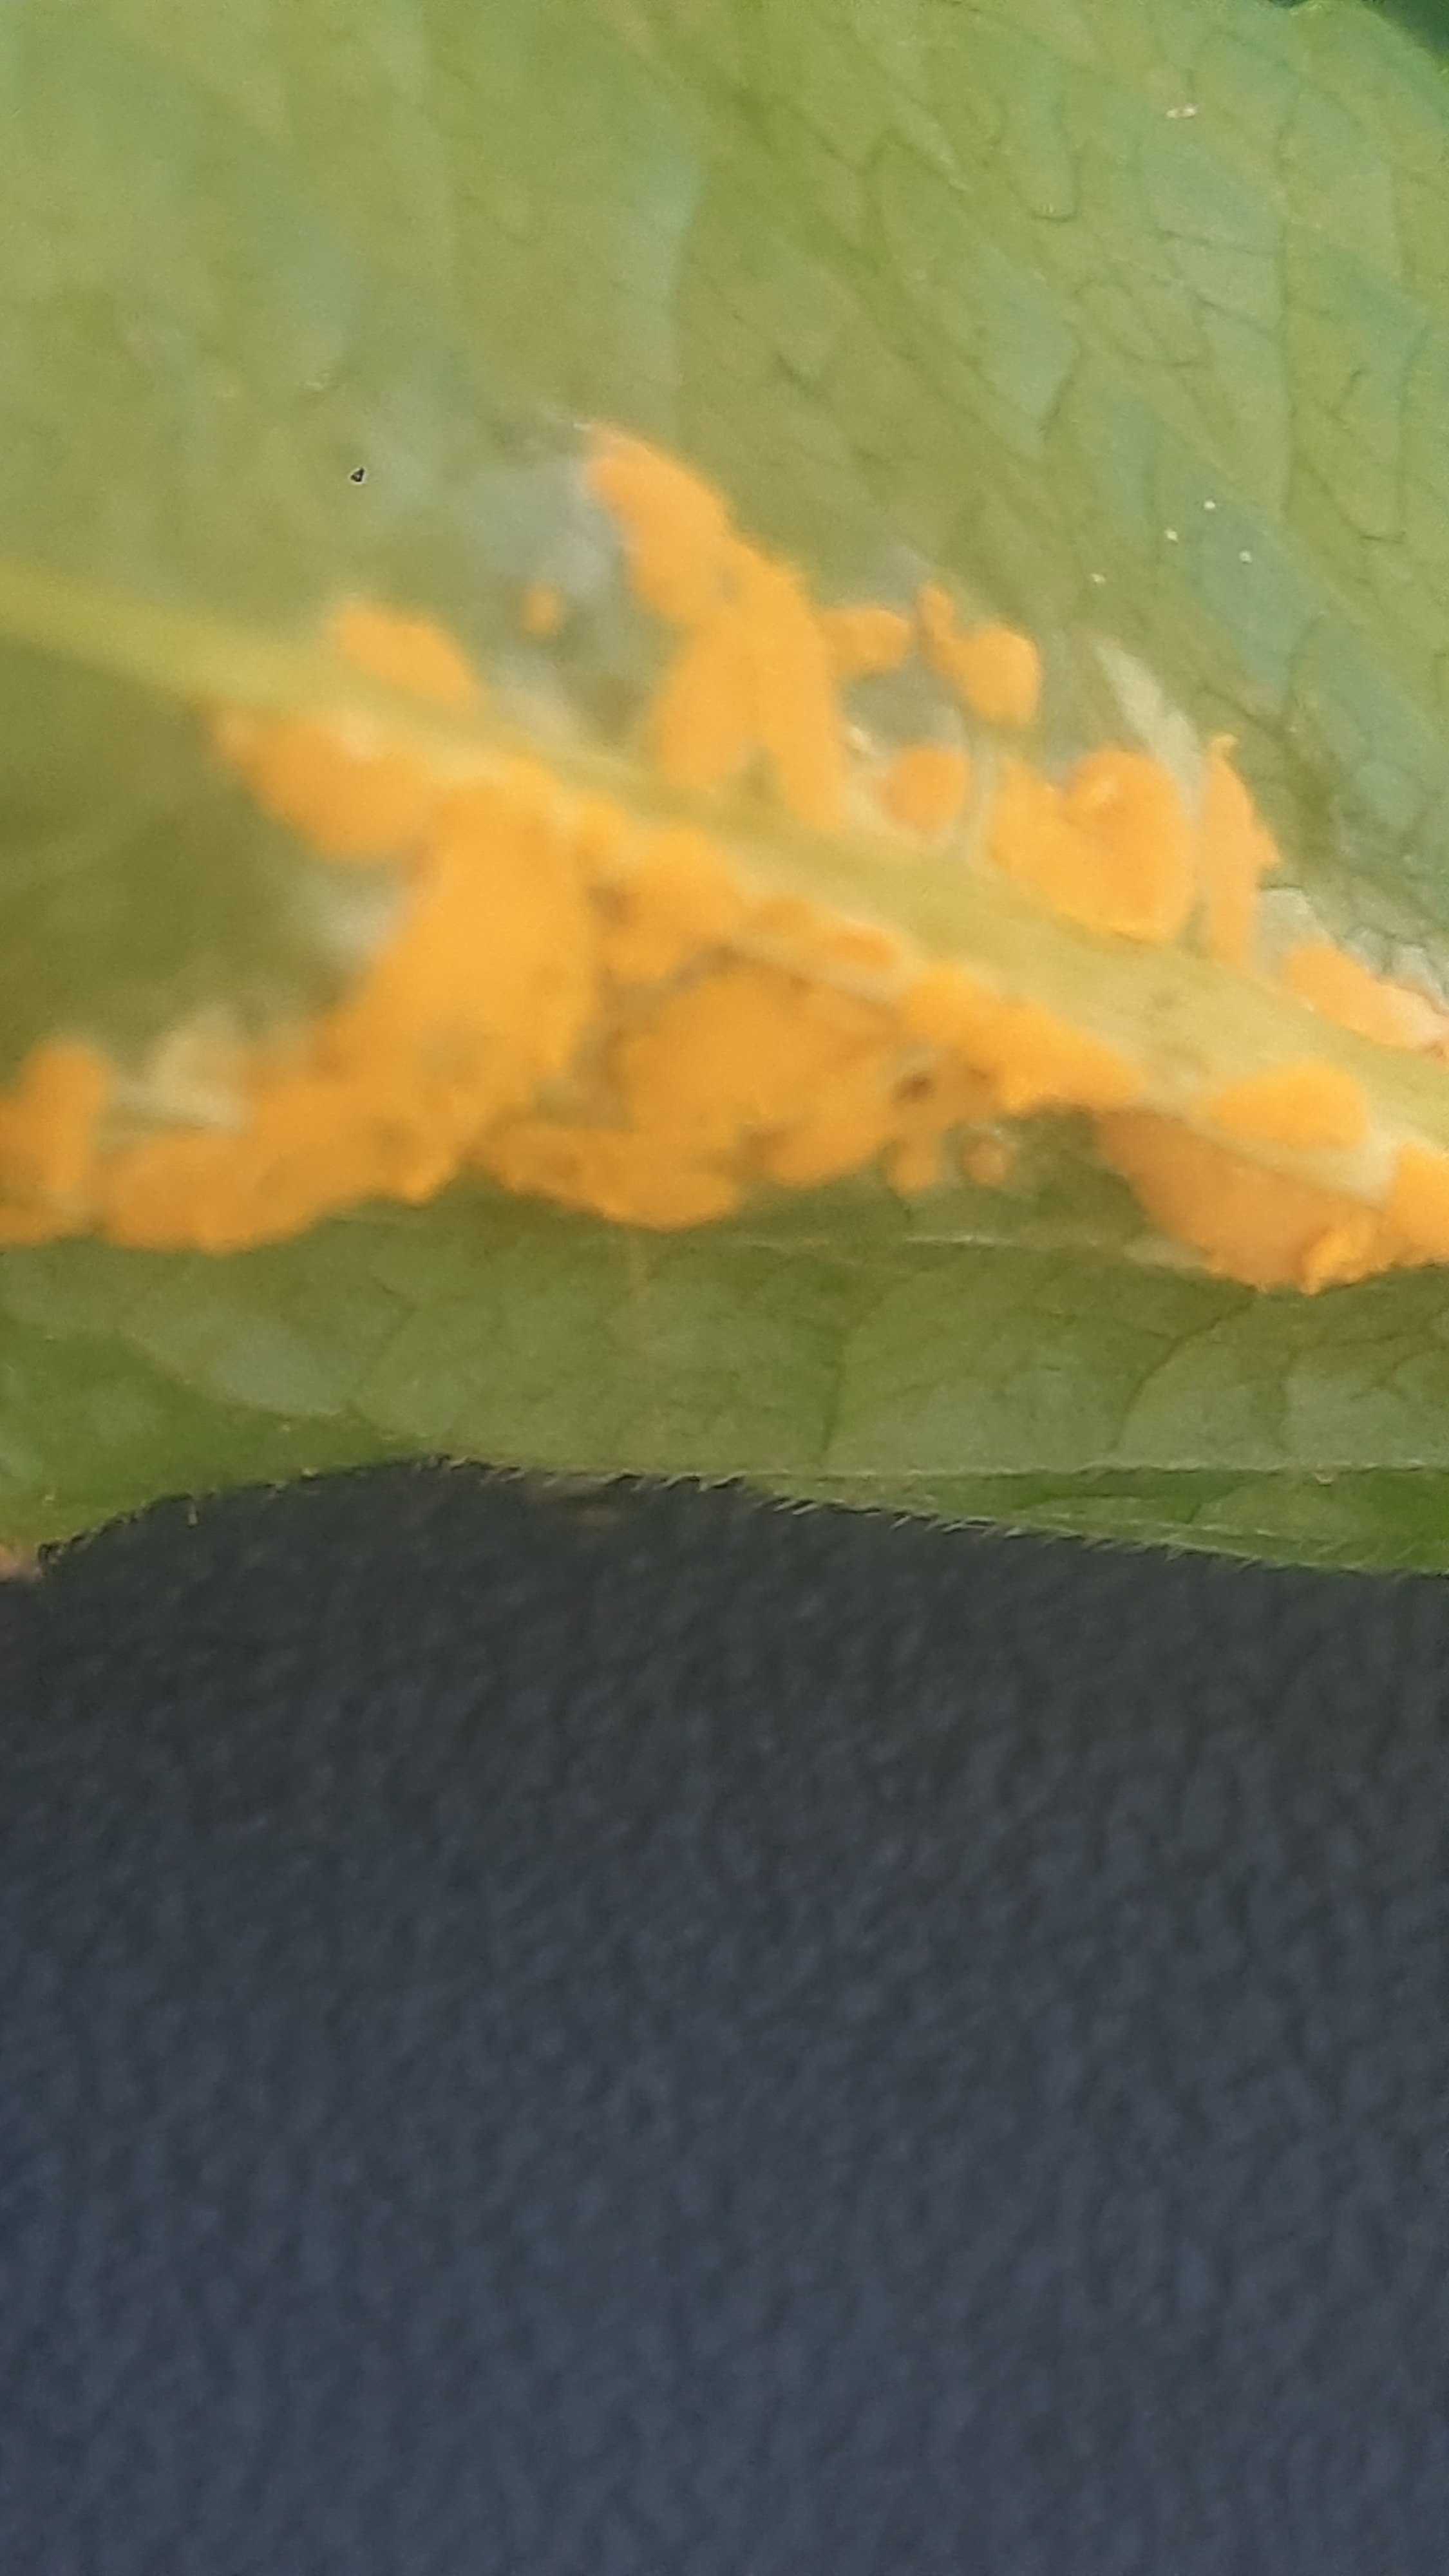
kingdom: Fungi
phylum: Basidiomycota
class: Pucciniomycetes
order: Pucciniales
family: Melampsoraceae
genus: Melampsora
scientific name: Melampsora populnea
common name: poppel-skorperust
